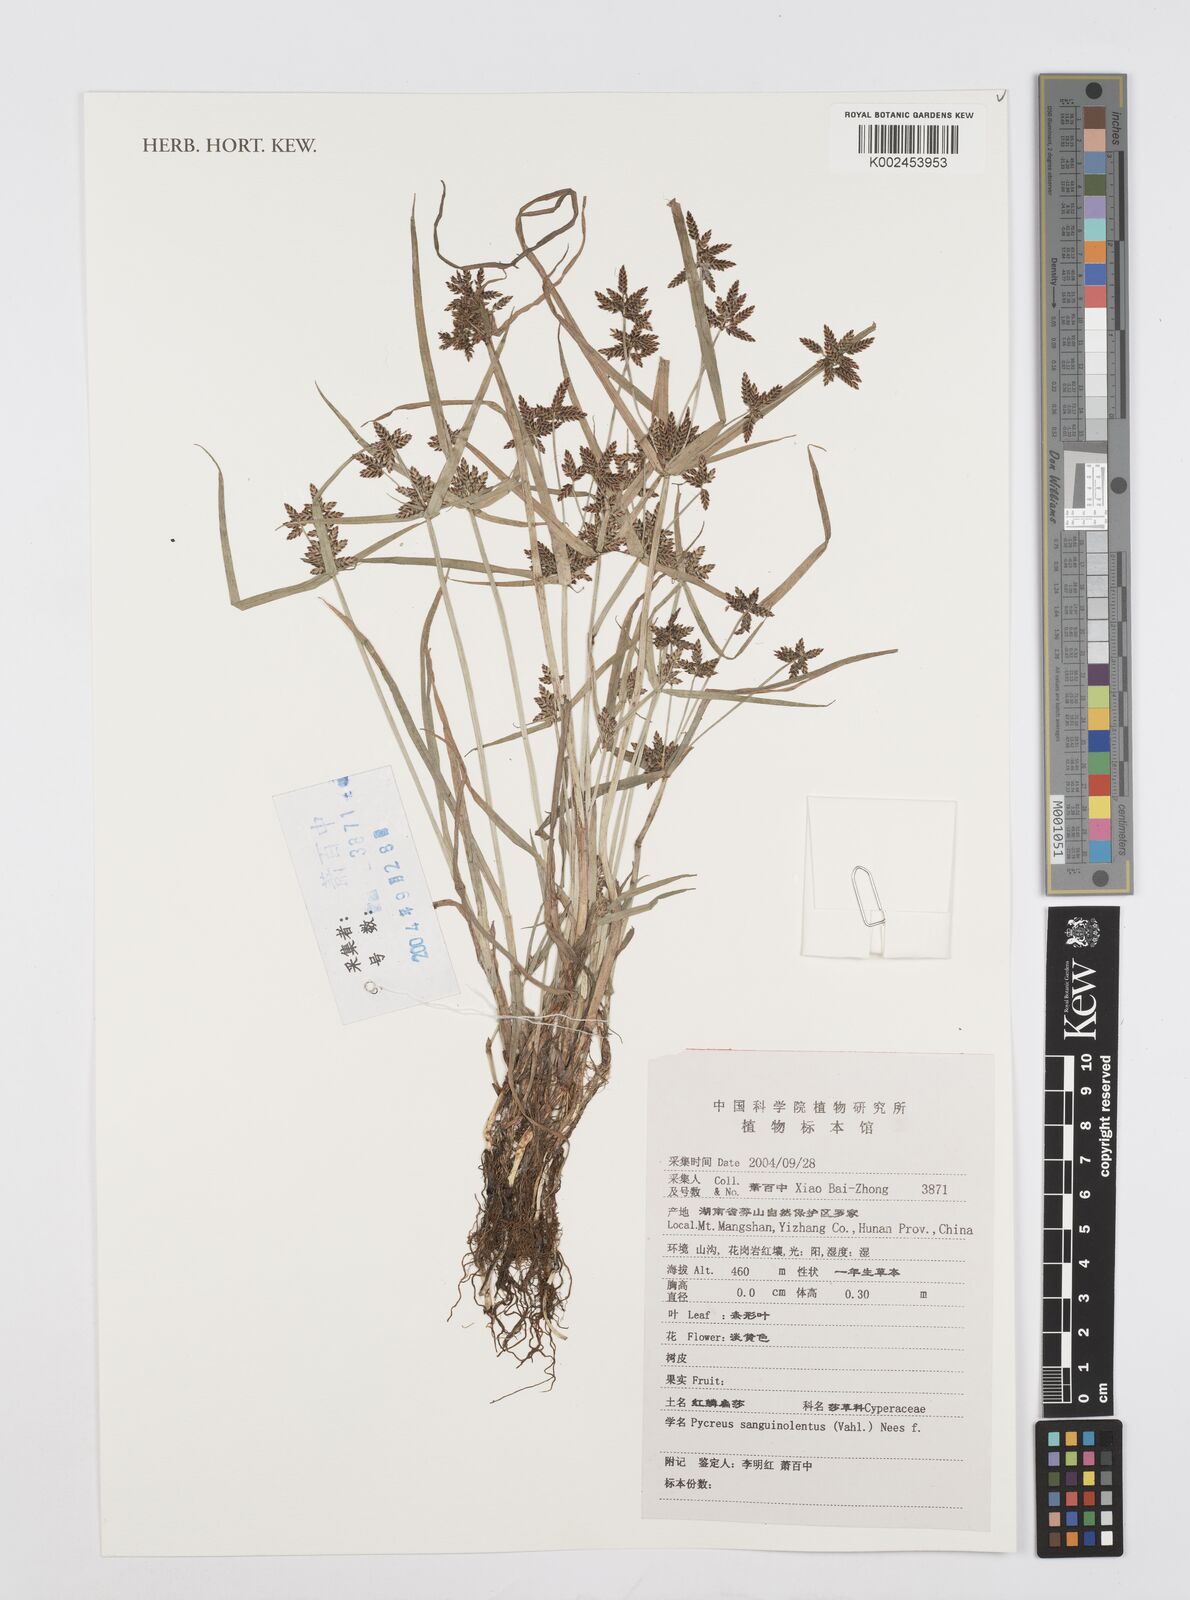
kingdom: Plantae
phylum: Tracheophyta
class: Liliopsida
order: Poales
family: Cyperaceae
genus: Cyperus
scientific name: Cyperus sanguinolentus
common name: Purpleglume flatsedge
